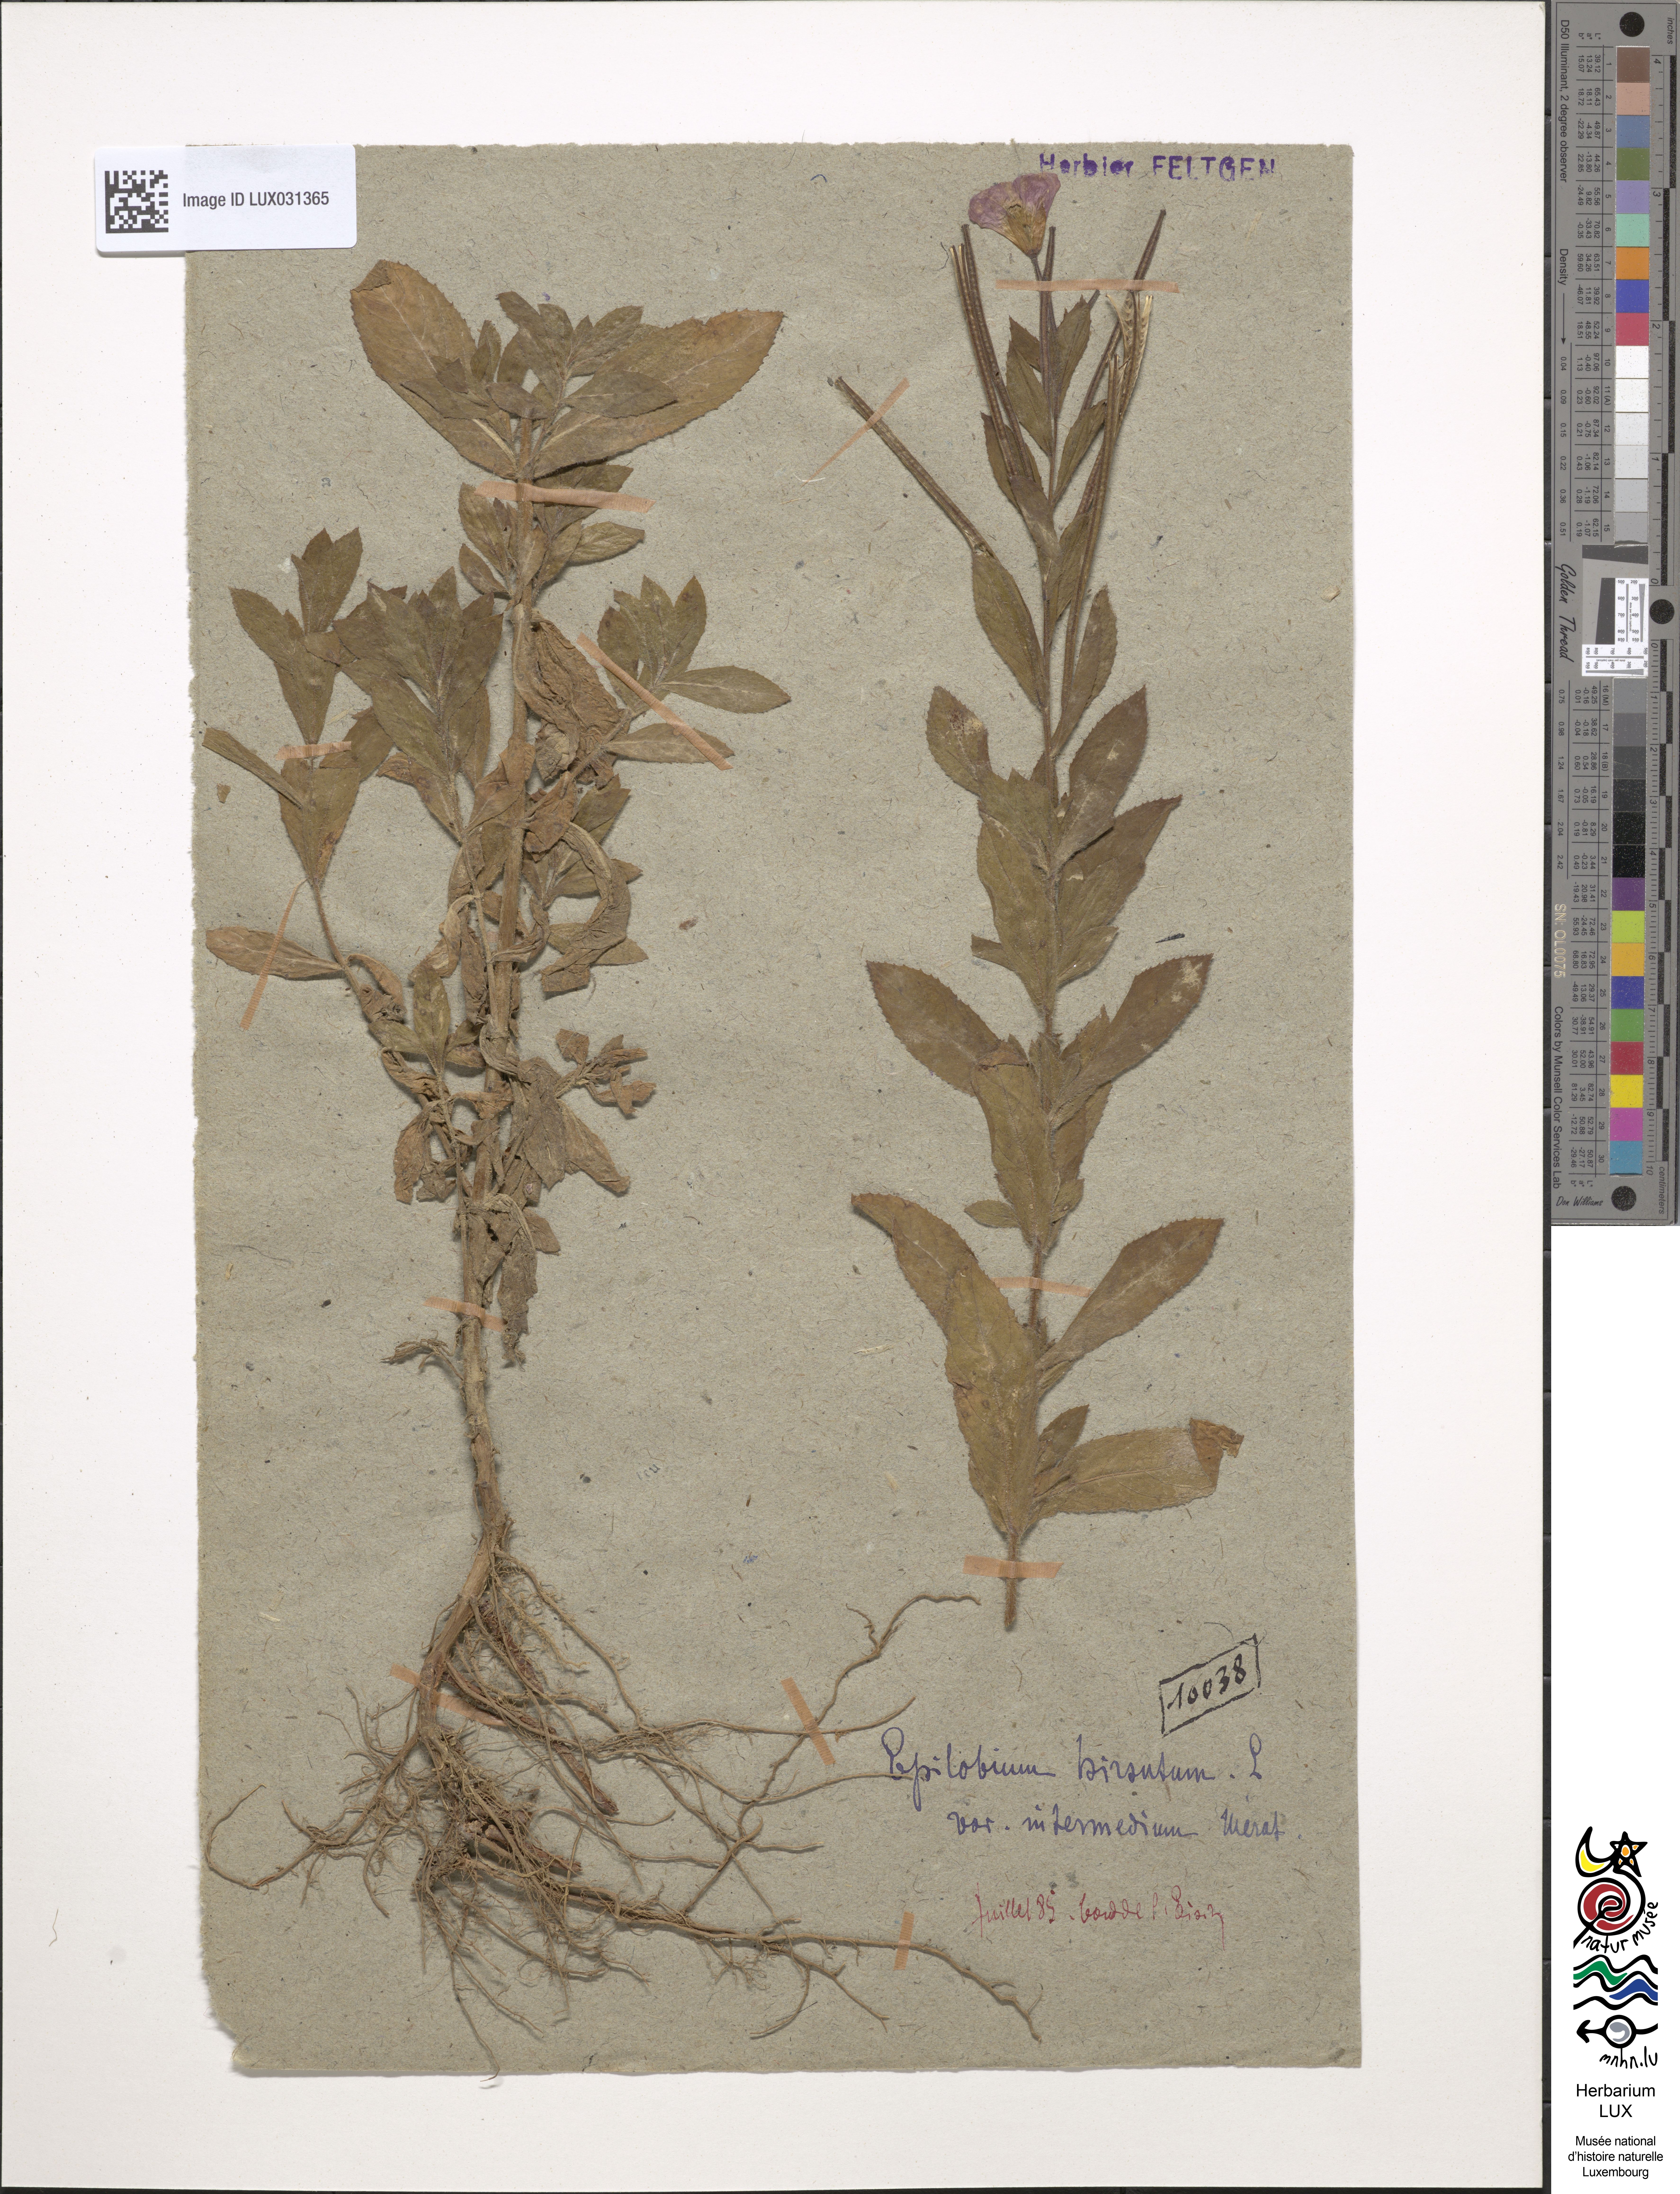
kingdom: Plantae
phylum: Tracheophyta
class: Magnoliopsida
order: Myrtales
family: Onagraceae
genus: Epilobium
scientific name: Epilobium hirsutum
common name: Great willowherb
